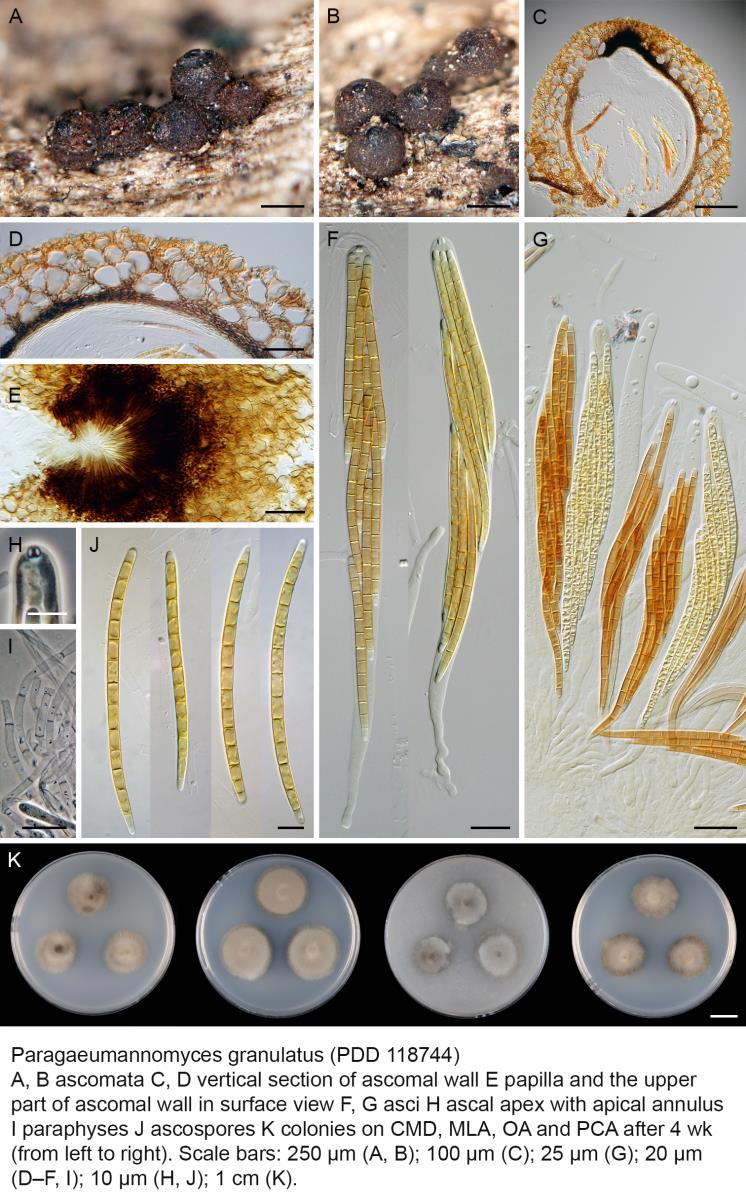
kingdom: Fungi
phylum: Ascomycota
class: Sordariomycetes
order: Chaetosphaeriales
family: Chaetosphaeriaceae
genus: Paragaeumannomyces
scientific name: Paragaeumannomyces granulatus
